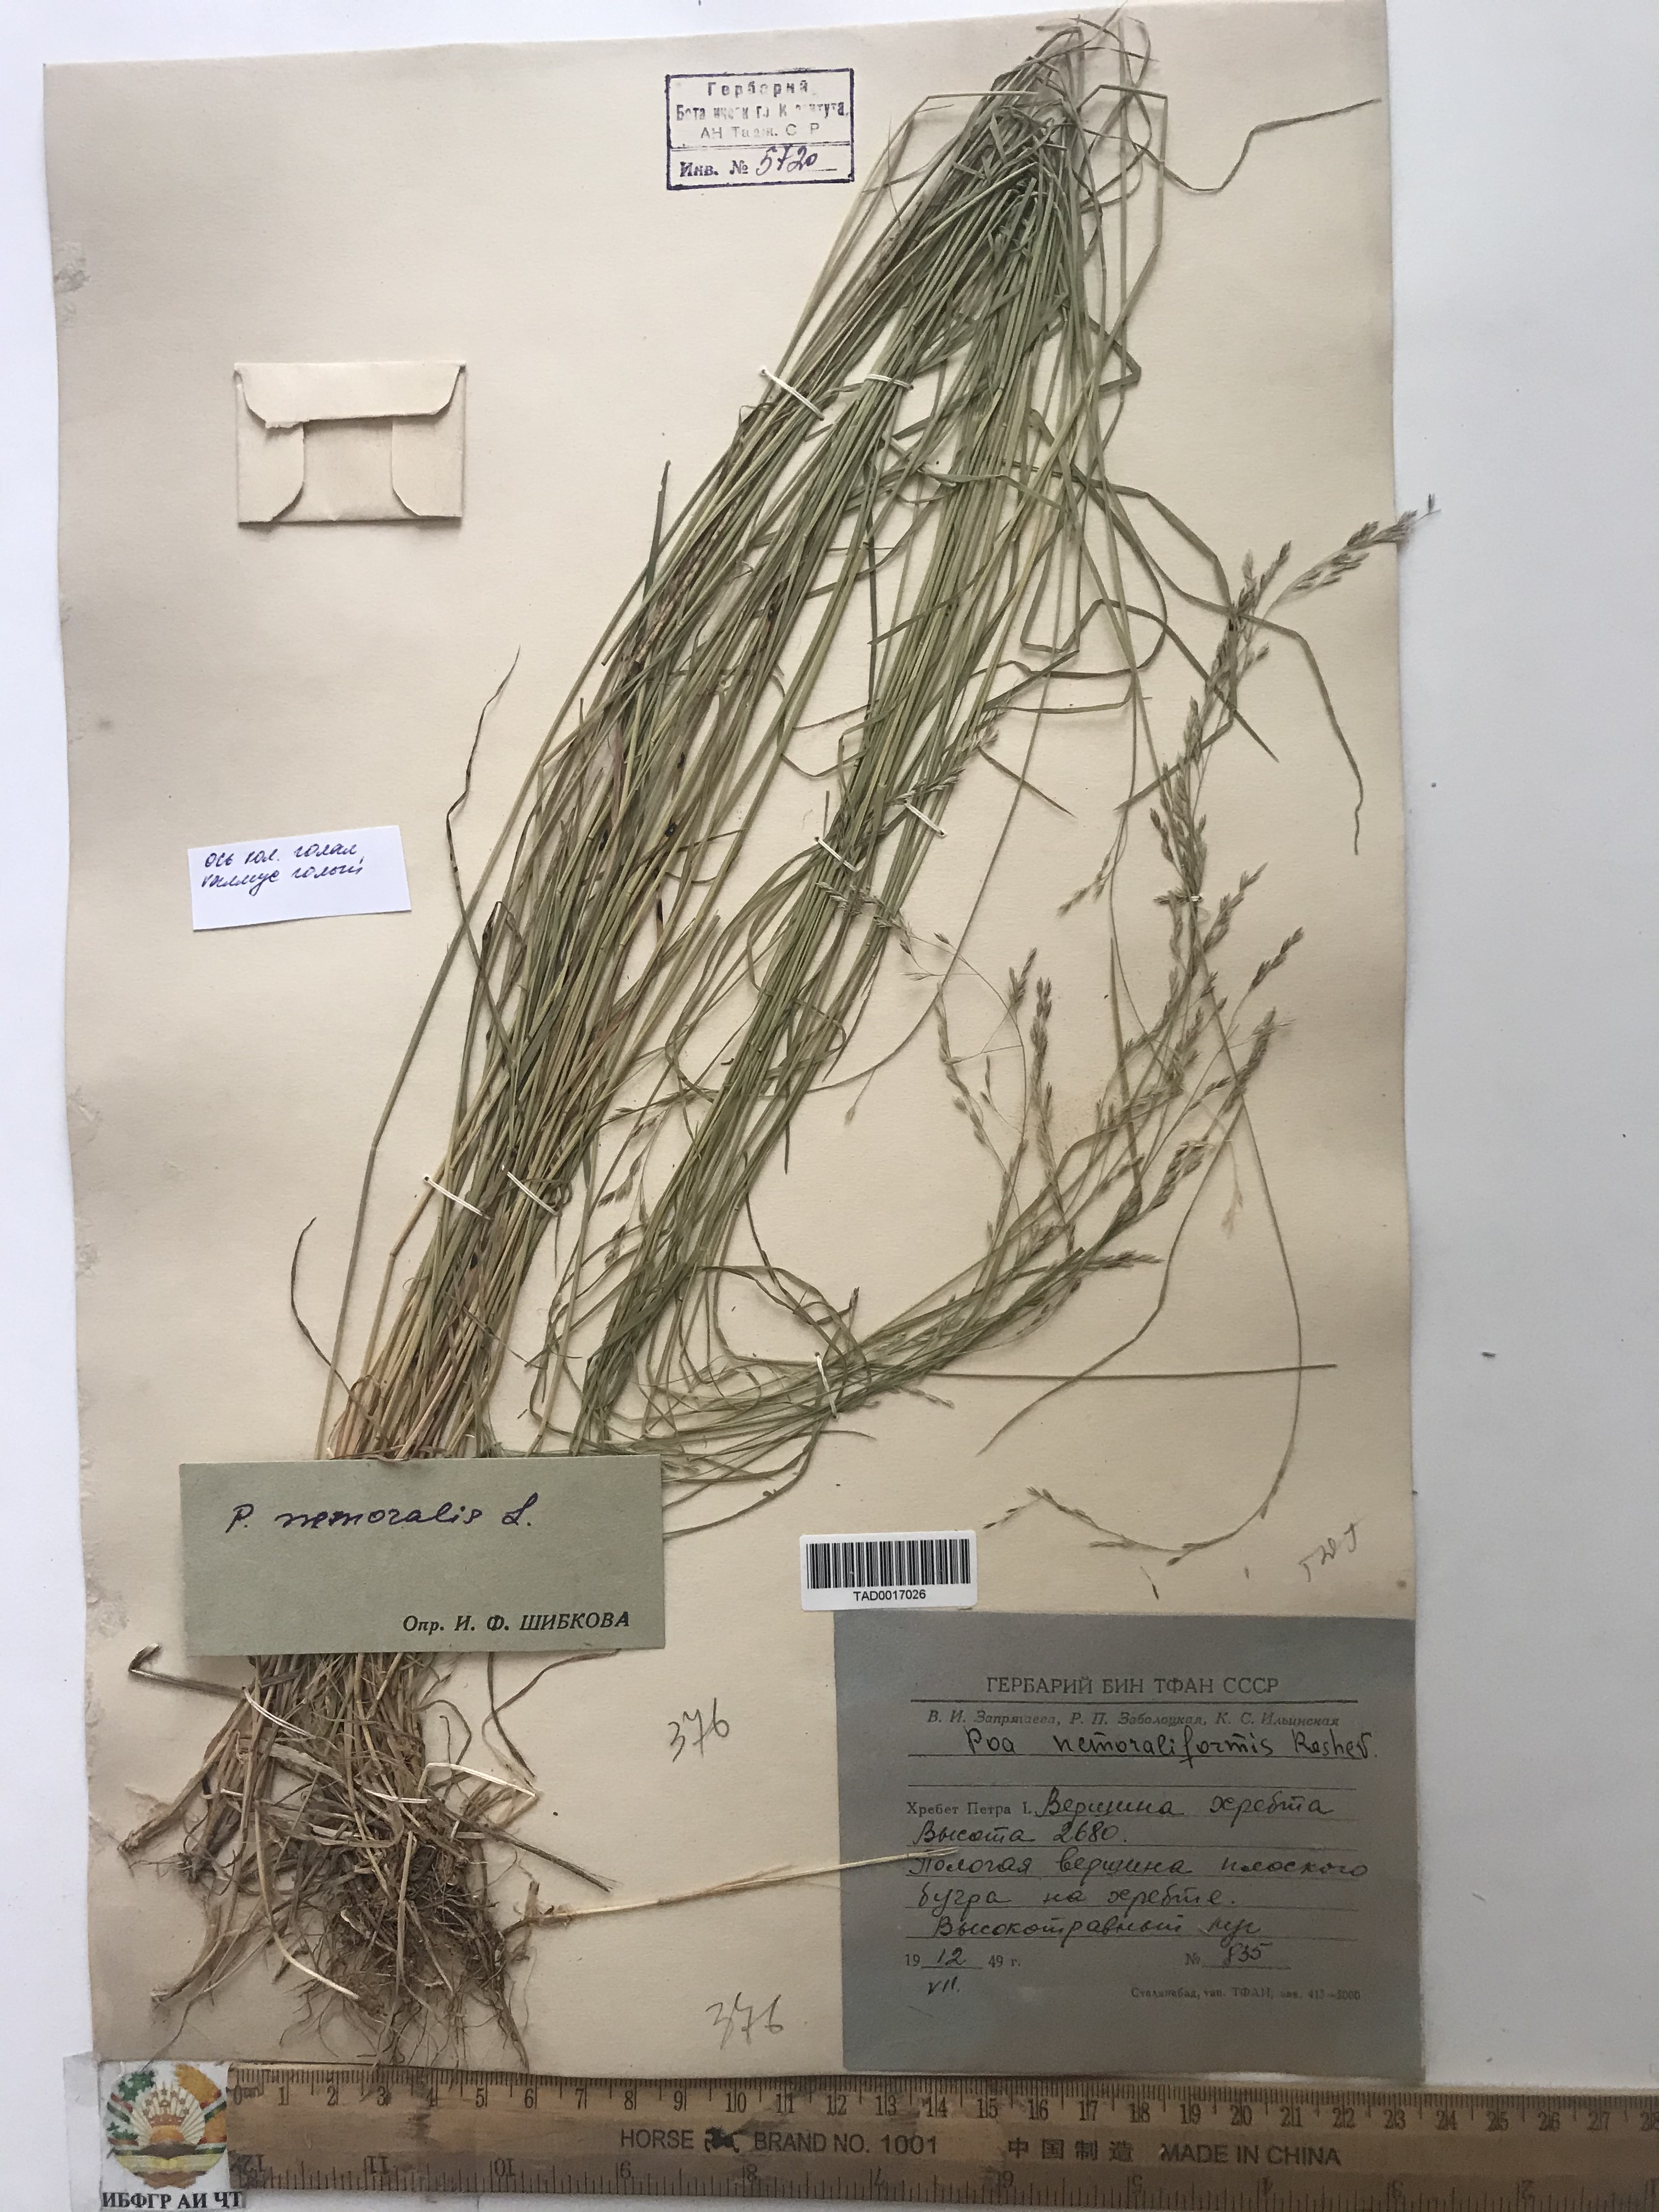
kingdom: Plantae
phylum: Tracheophyta
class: Liliopsida
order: Poales
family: Poaceae
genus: Poa
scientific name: Poa nemoraliformis
